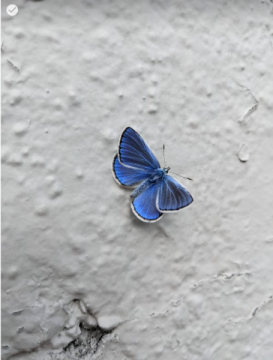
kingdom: Animalia
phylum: Arthropoda
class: Insecta
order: Lepidoptera
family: Lycaenidae
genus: Polyommatus
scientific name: Polyommatus icarus
